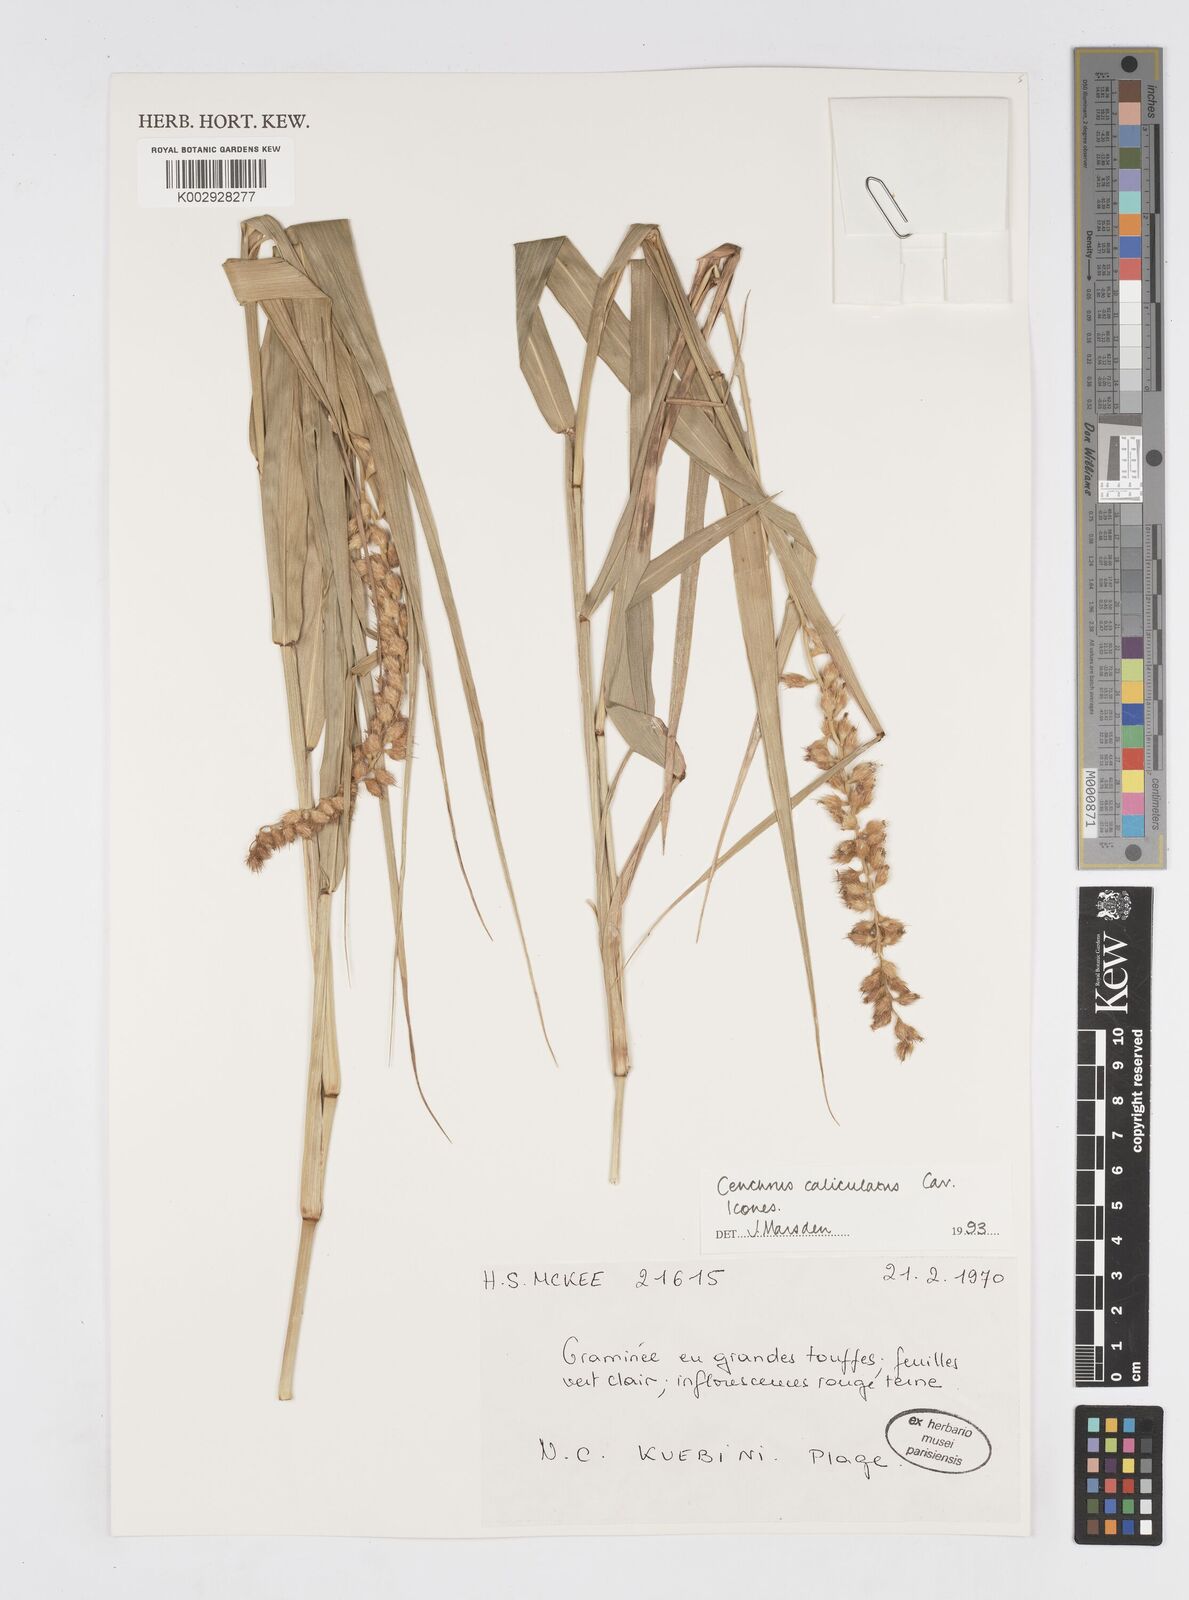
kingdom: Plantae
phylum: Tracheophyta
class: Liliopsida
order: Poales
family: Poaceae
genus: Cenchrus
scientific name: Cenchrus caliculatus
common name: Large bur grass
